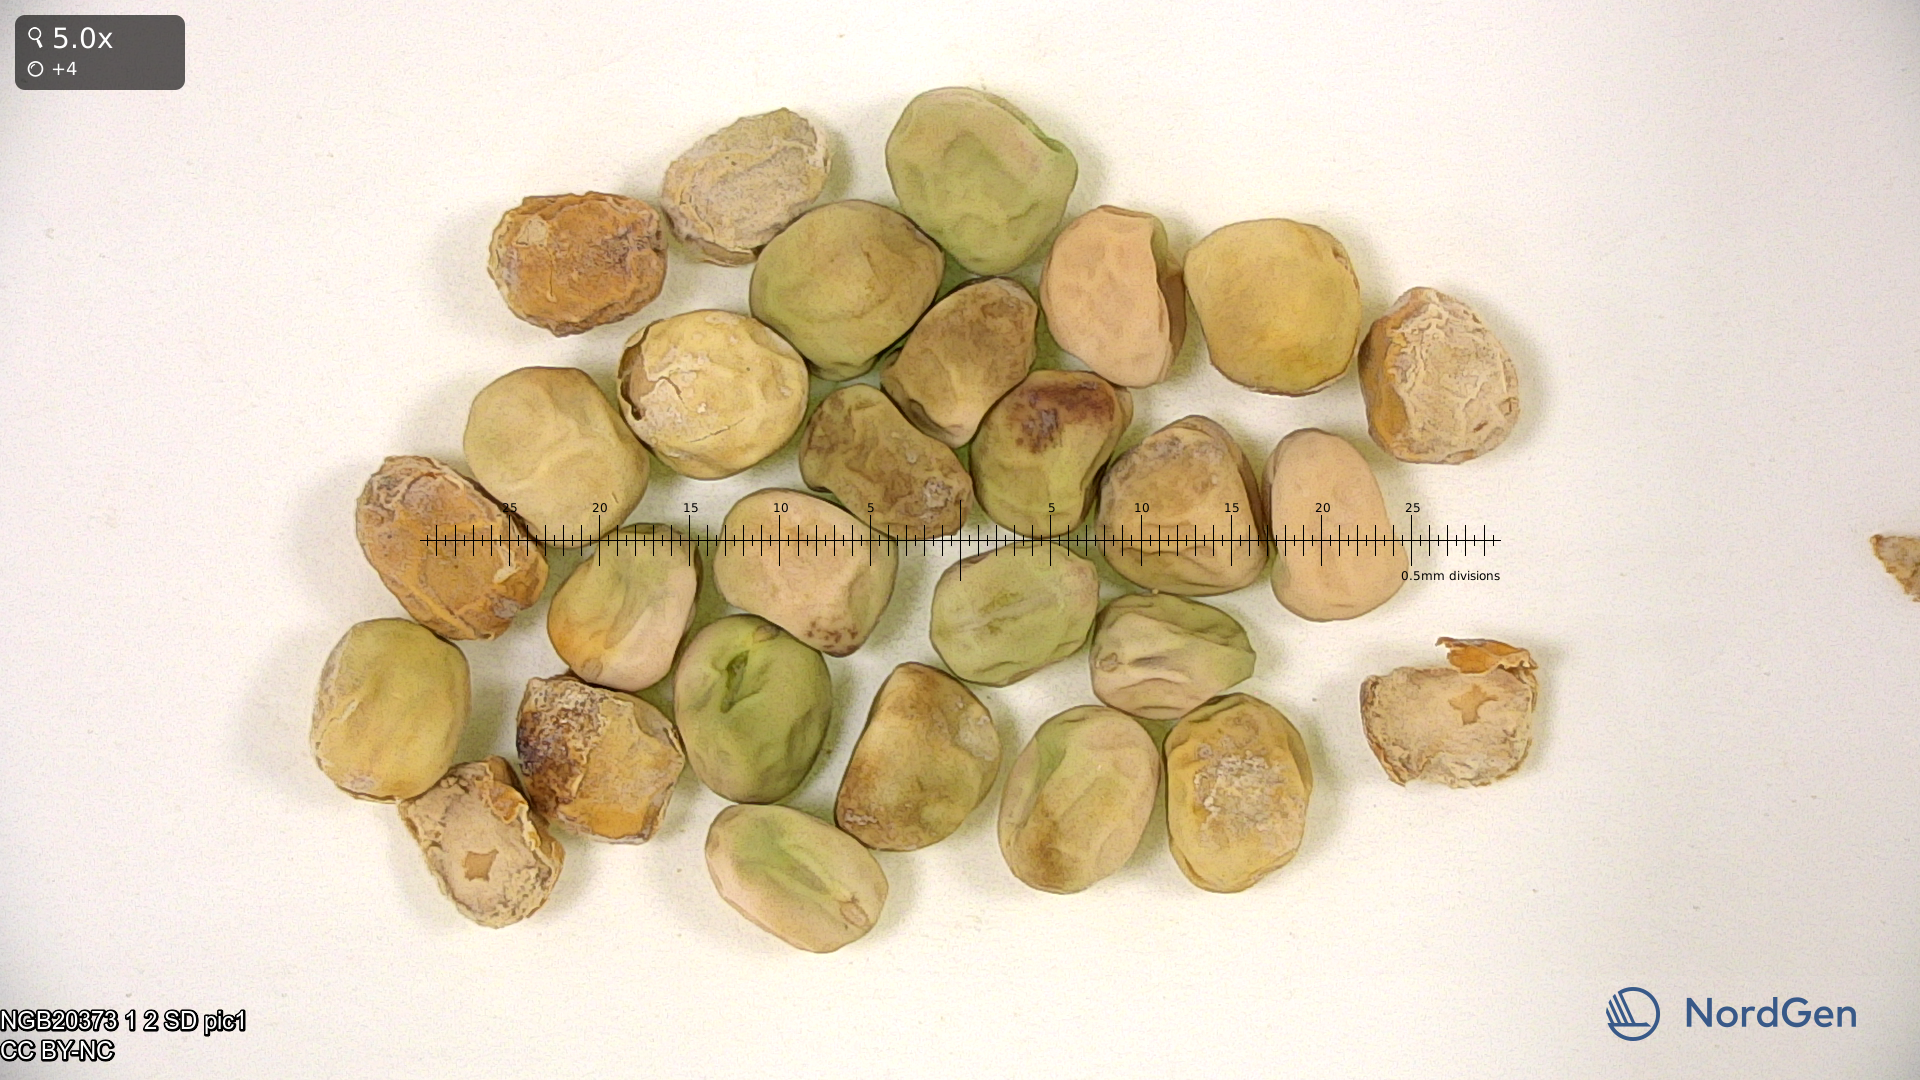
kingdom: Plantae
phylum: Tracheophyta
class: Magnoliopsida
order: Fabales
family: Fabaceae
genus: Lathyrus
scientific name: Lathyrus oleraceus
